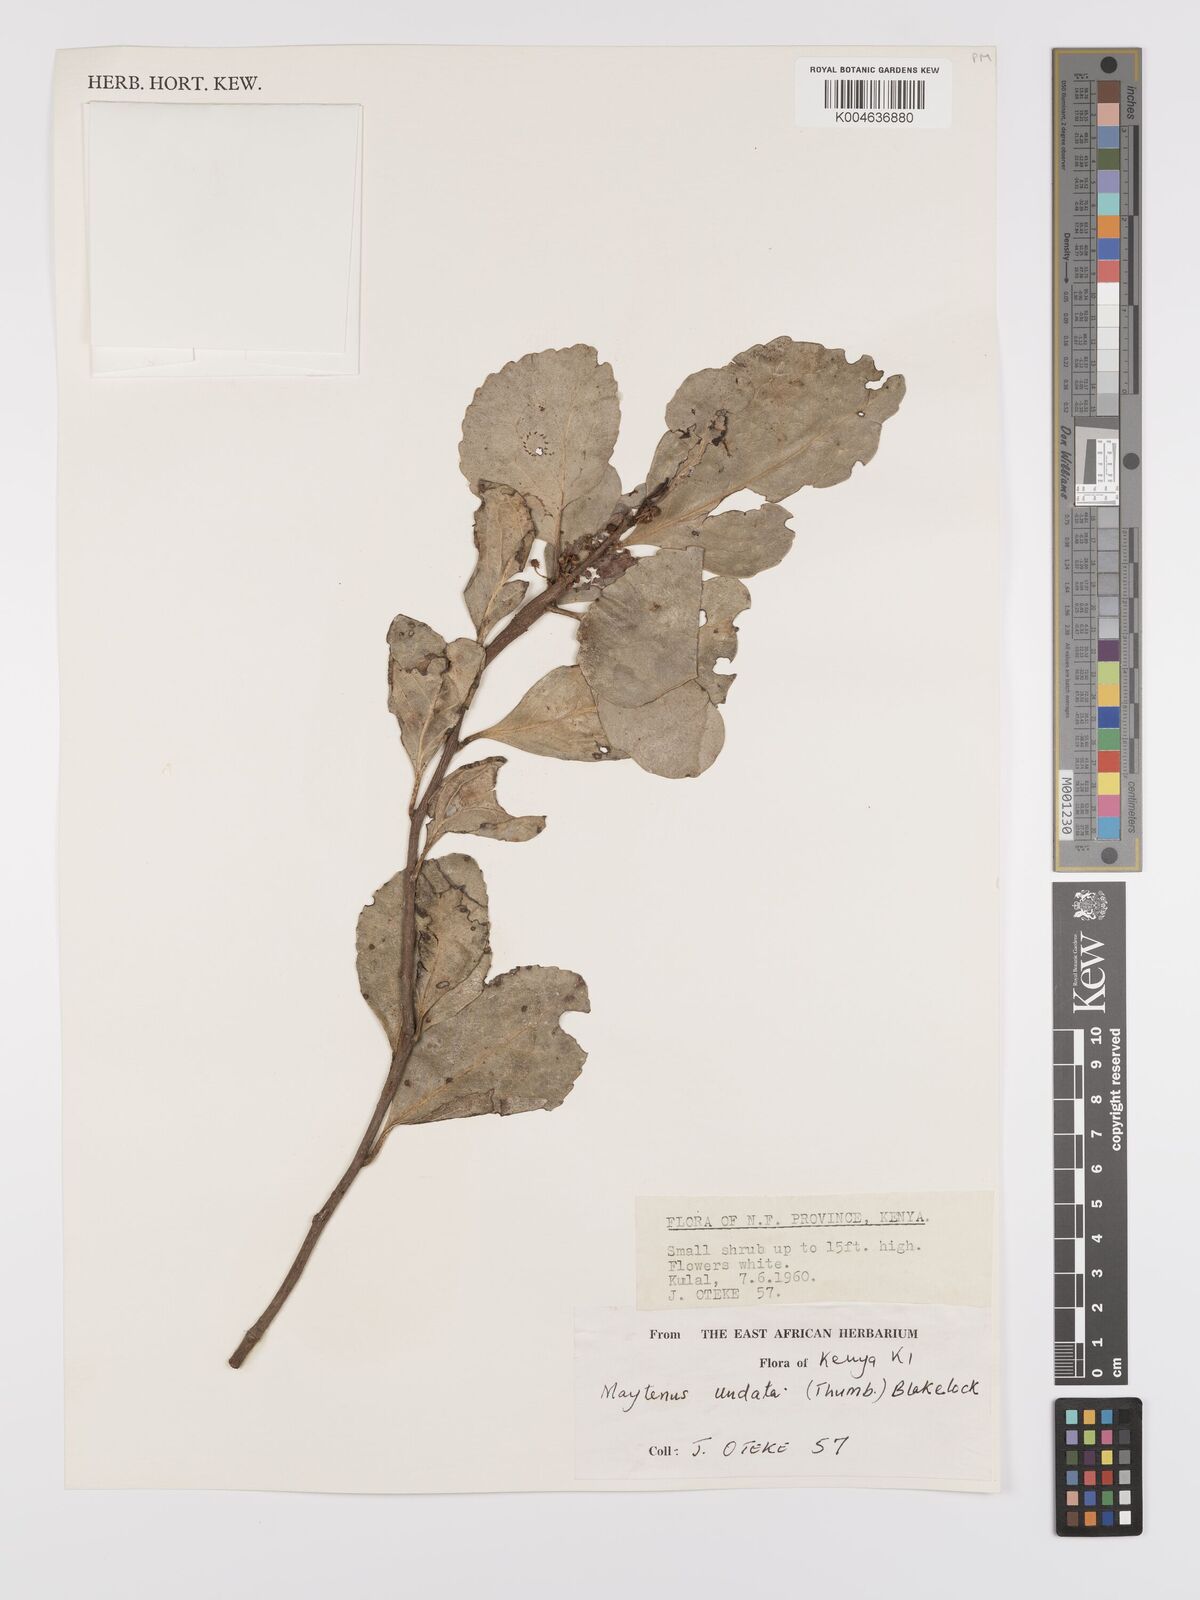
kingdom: Plantae
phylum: Tracheophyta
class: Magnoliopsida
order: Celastrales
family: Celastraceae
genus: Gymnosporia
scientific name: Gymnosporia undata
